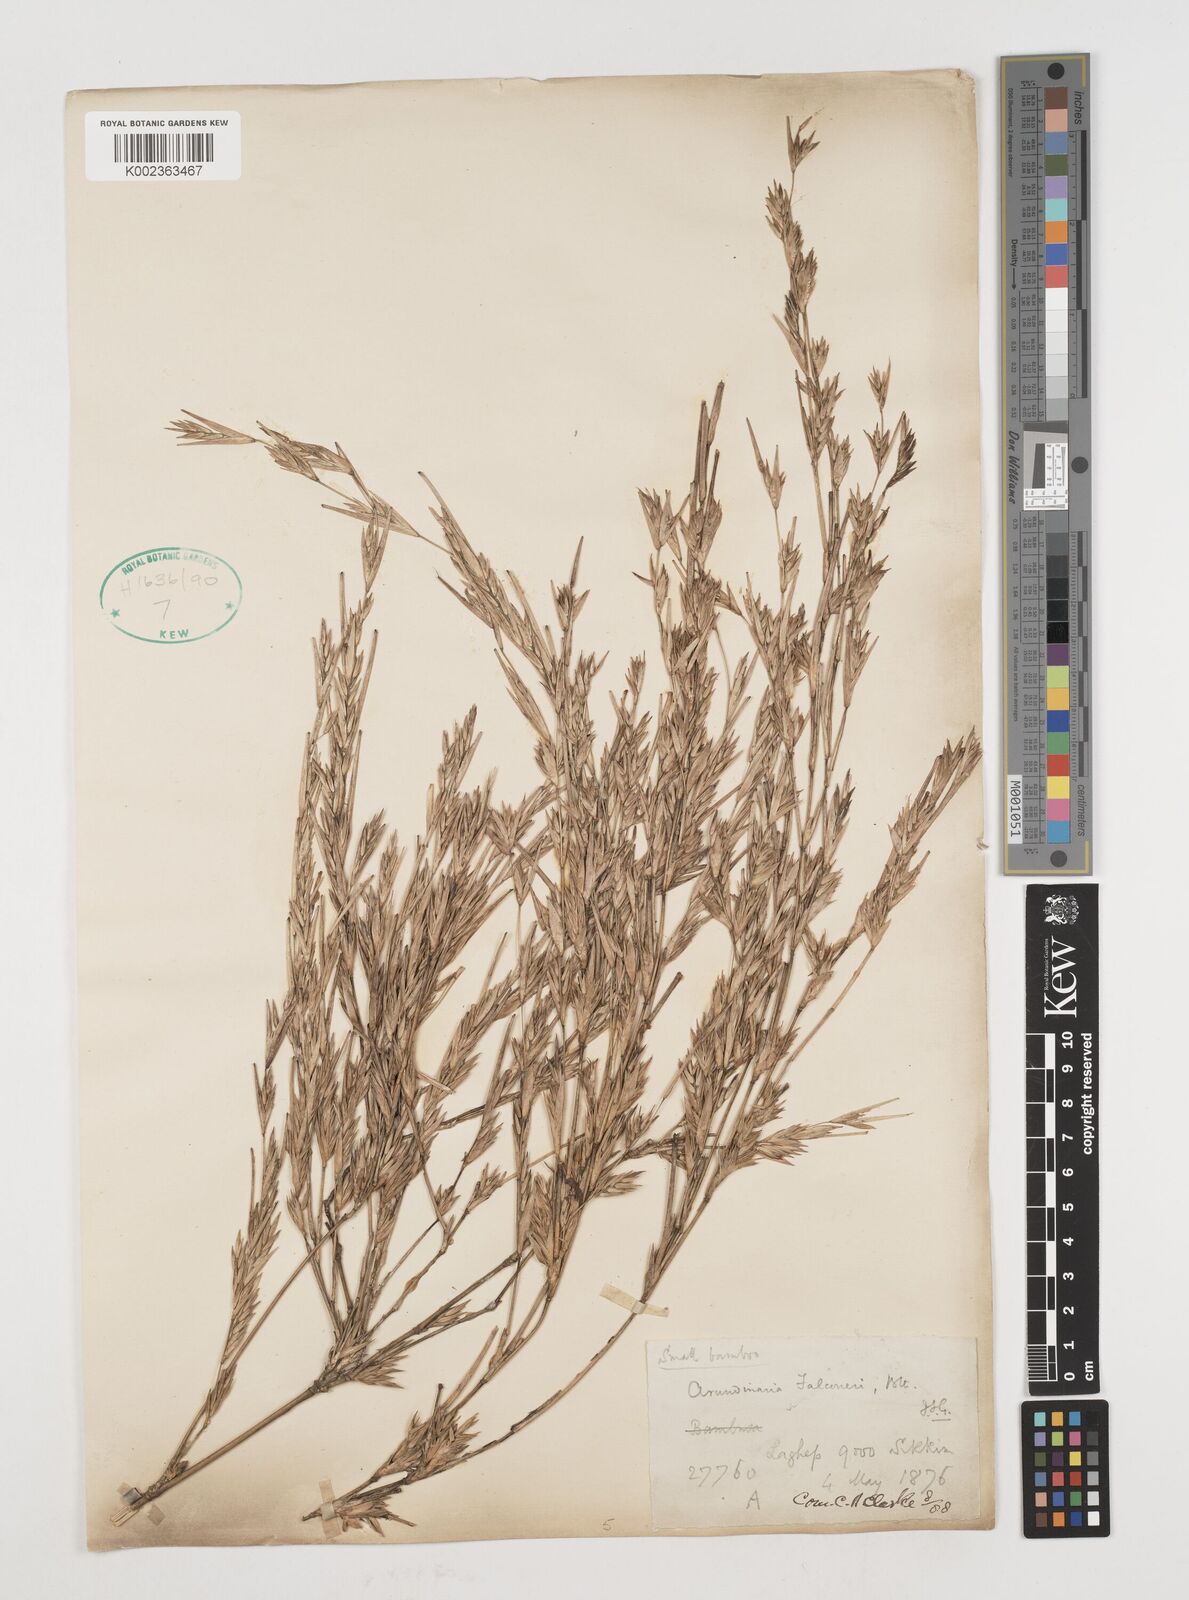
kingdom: Plantae
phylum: Tracheophyta
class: Liliopsida
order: Poales
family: Poaceae
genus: Himalayacalamus
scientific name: Himalayacalamus brevinodus
